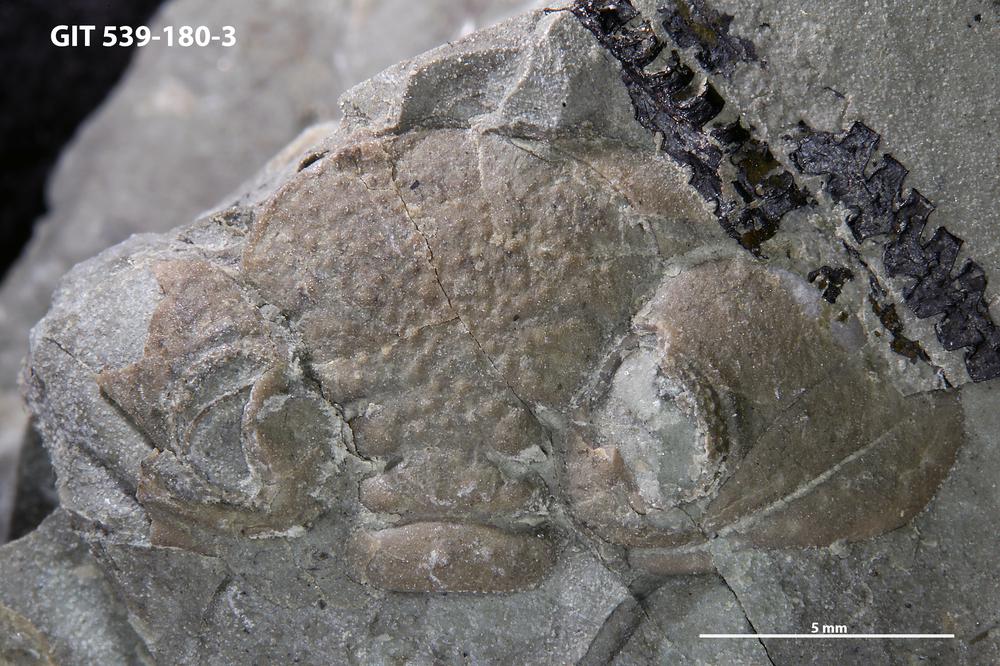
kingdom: Animalia
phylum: Arthropoda
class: Trilobita
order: Phacopida
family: Pterygometopidae
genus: Estoniops
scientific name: Estoniops maennili
